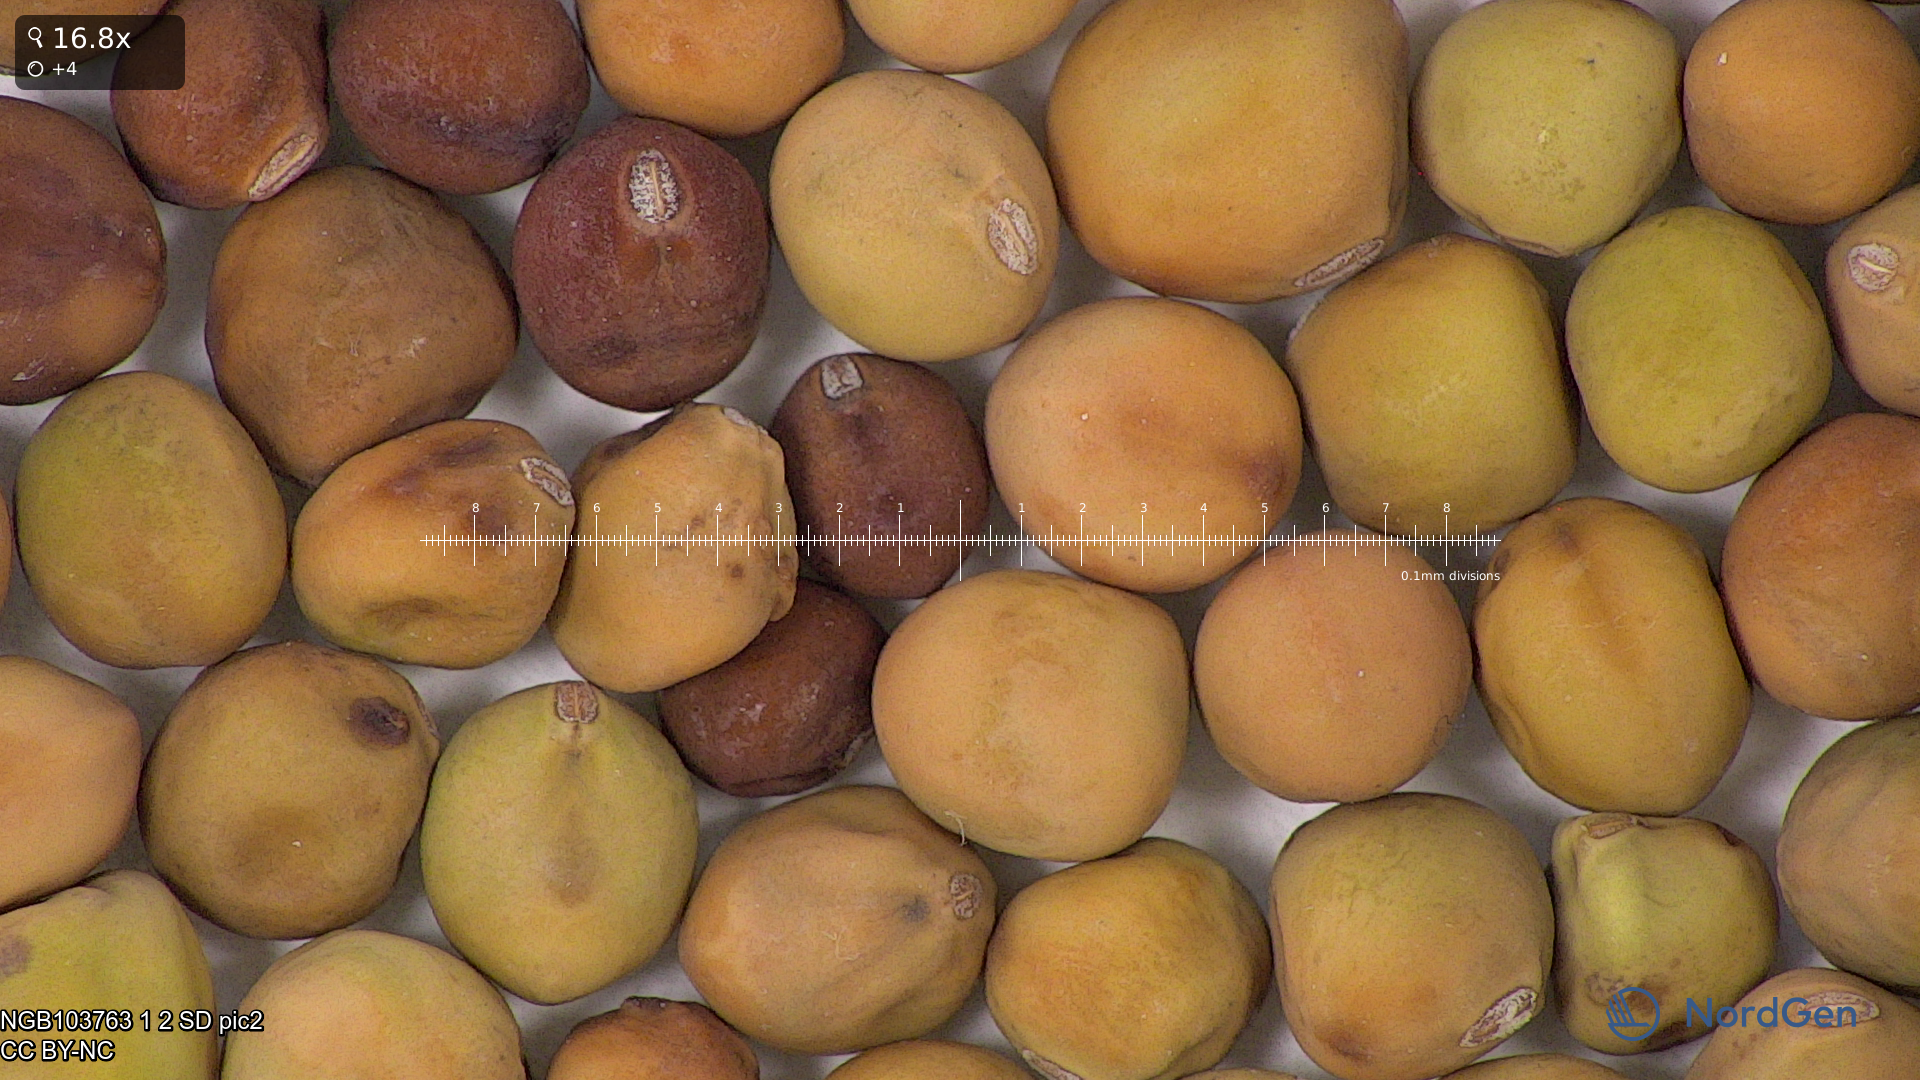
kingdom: Plantae
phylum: Tracheophyta
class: Magnoliopsida
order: Fabales
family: Fabaceae
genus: Lathyrus
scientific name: Lathyrus oleraceus
